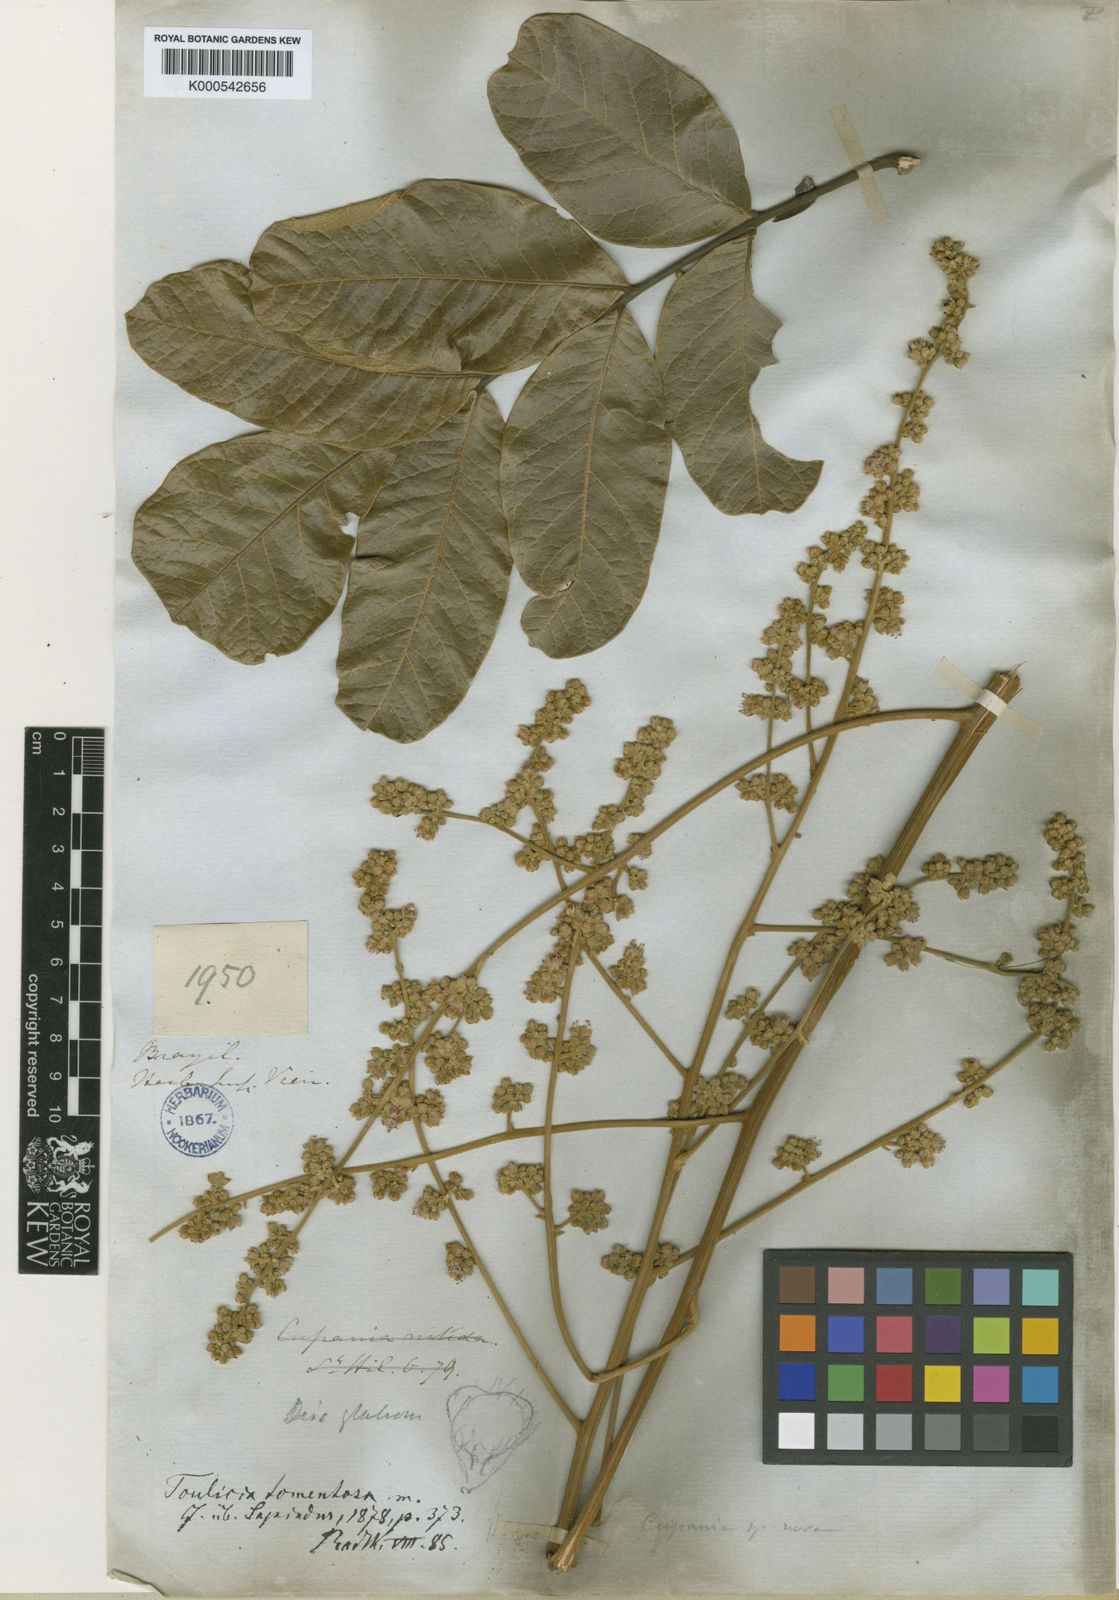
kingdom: Plantae
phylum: Tracheophyta
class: Magnoliopsida
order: Sapindales
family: Sapindaceae
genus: Toulicia
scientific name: Toulicia tomentosa
